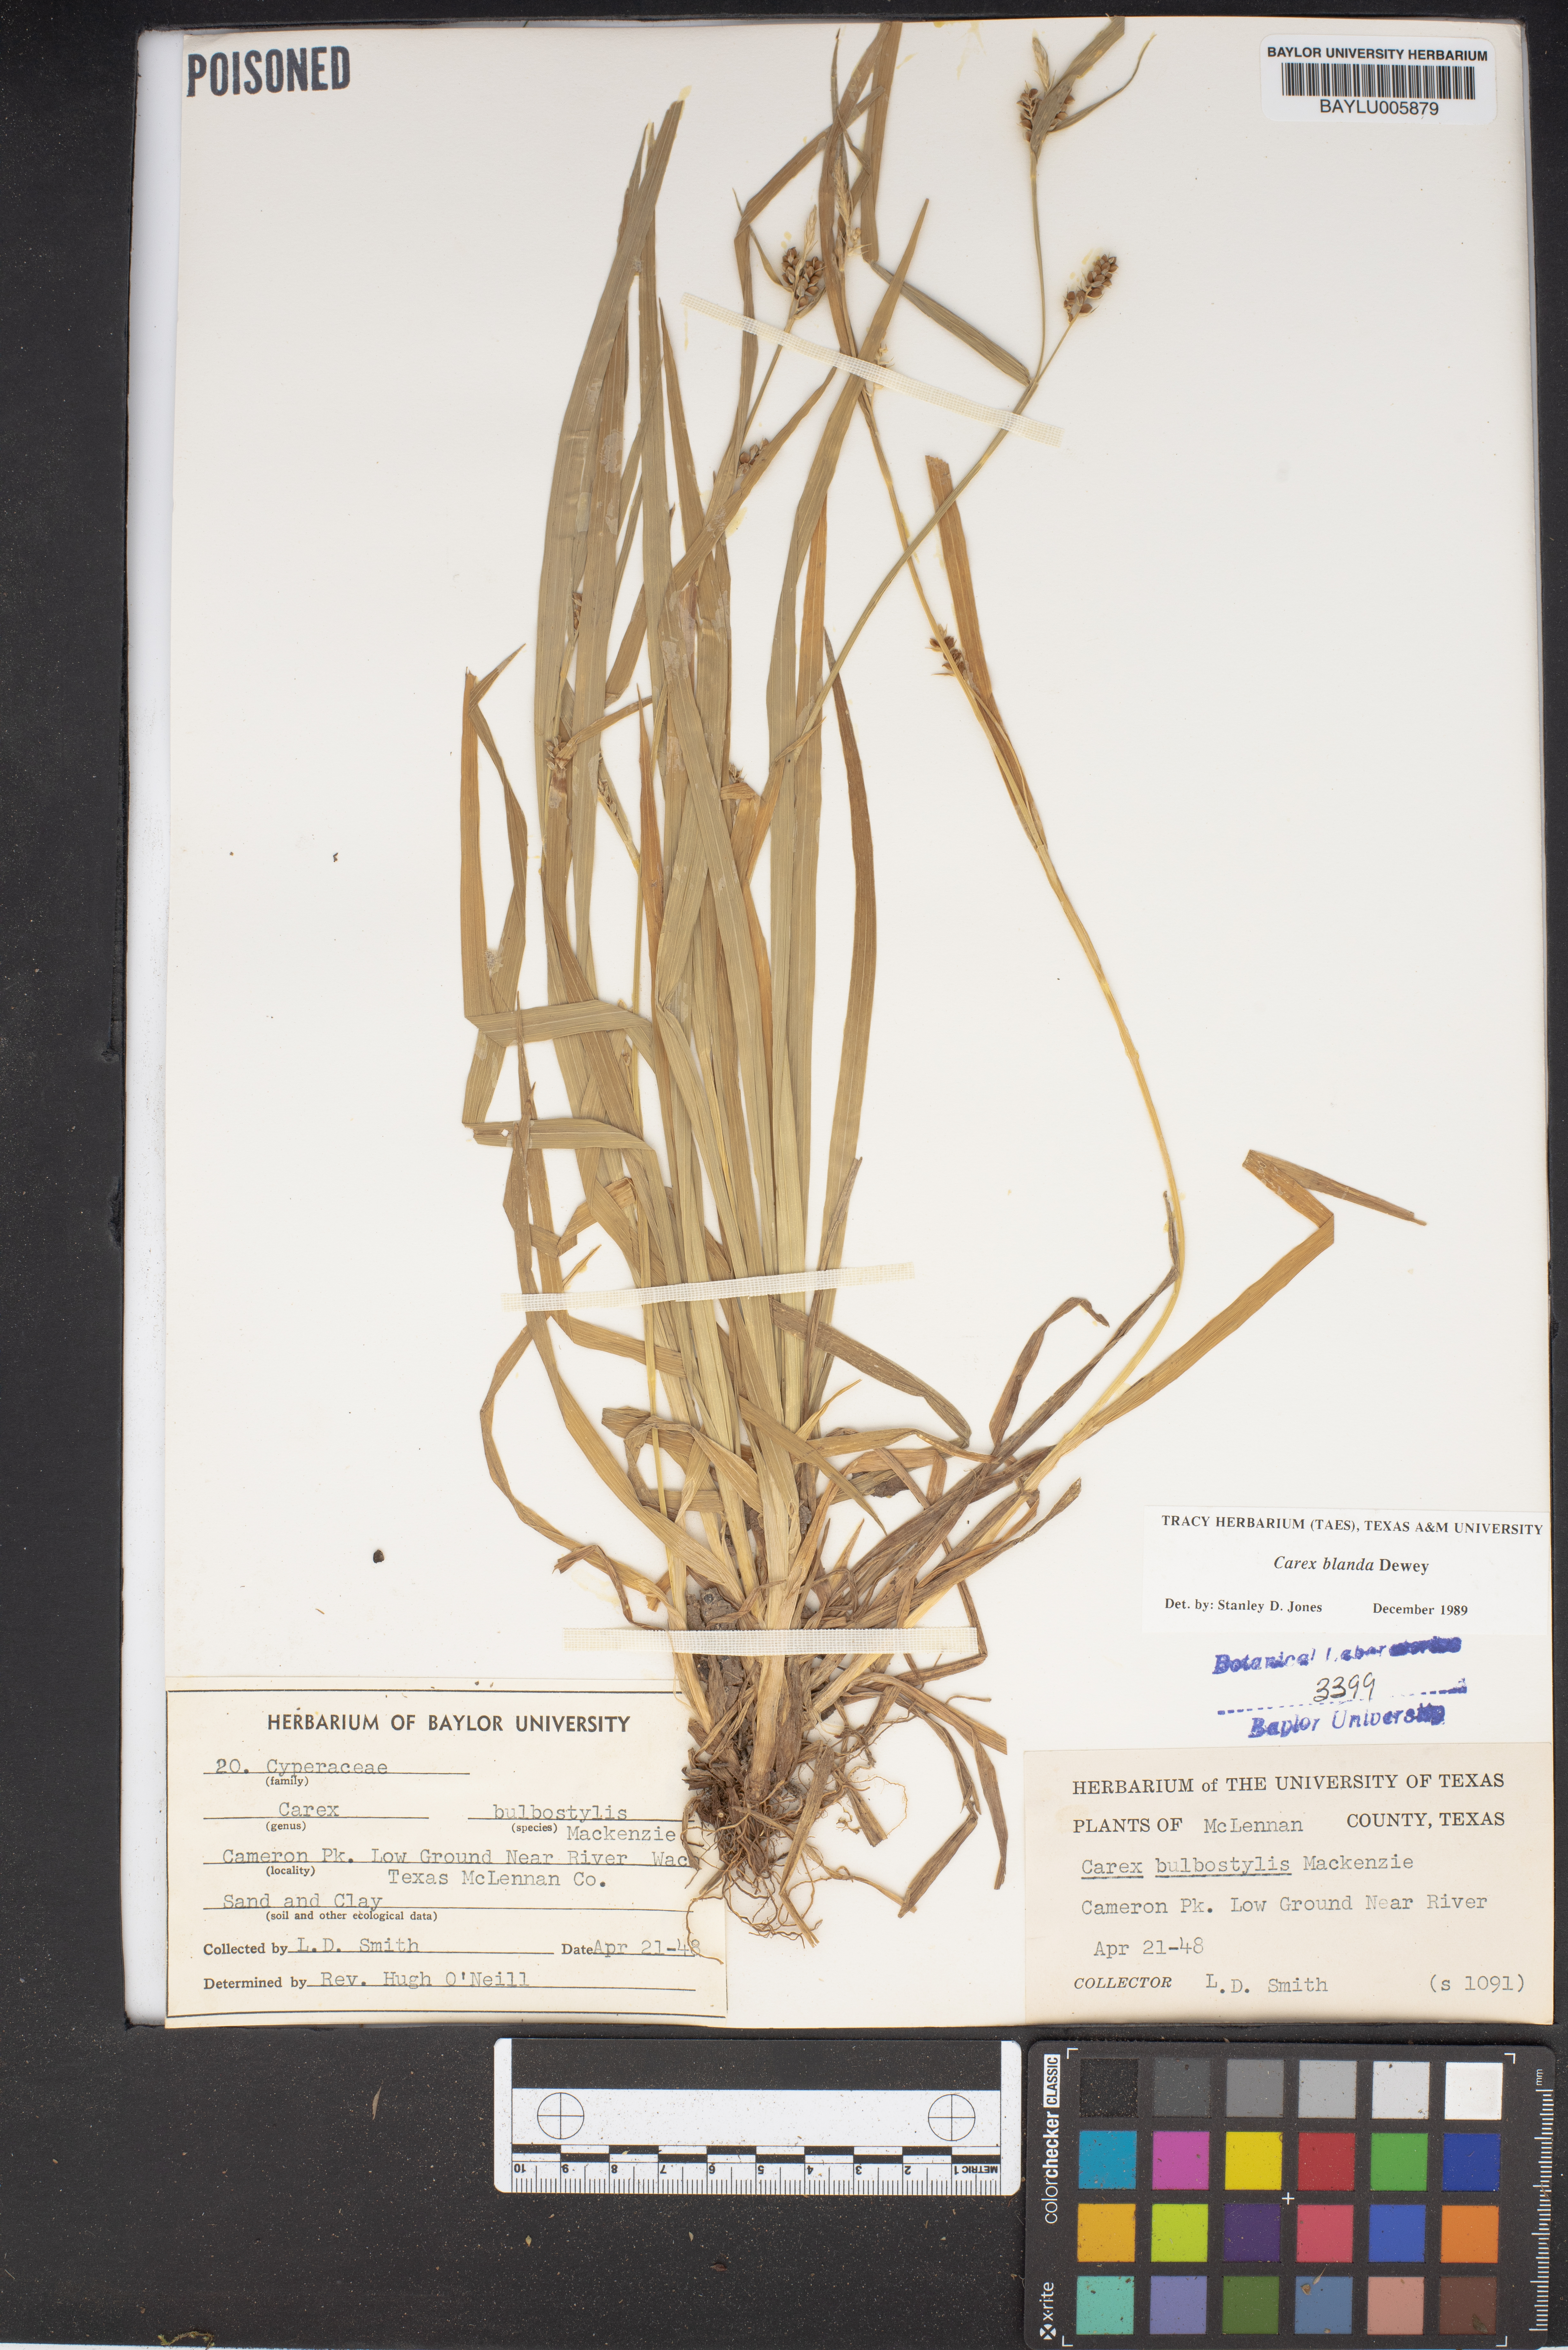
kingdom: Plantae
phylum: Tracheophyta
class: Liliopsida
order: Poales
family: Cyperaceae
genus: Carex
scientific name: Carex blanda
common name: Bland sedge
